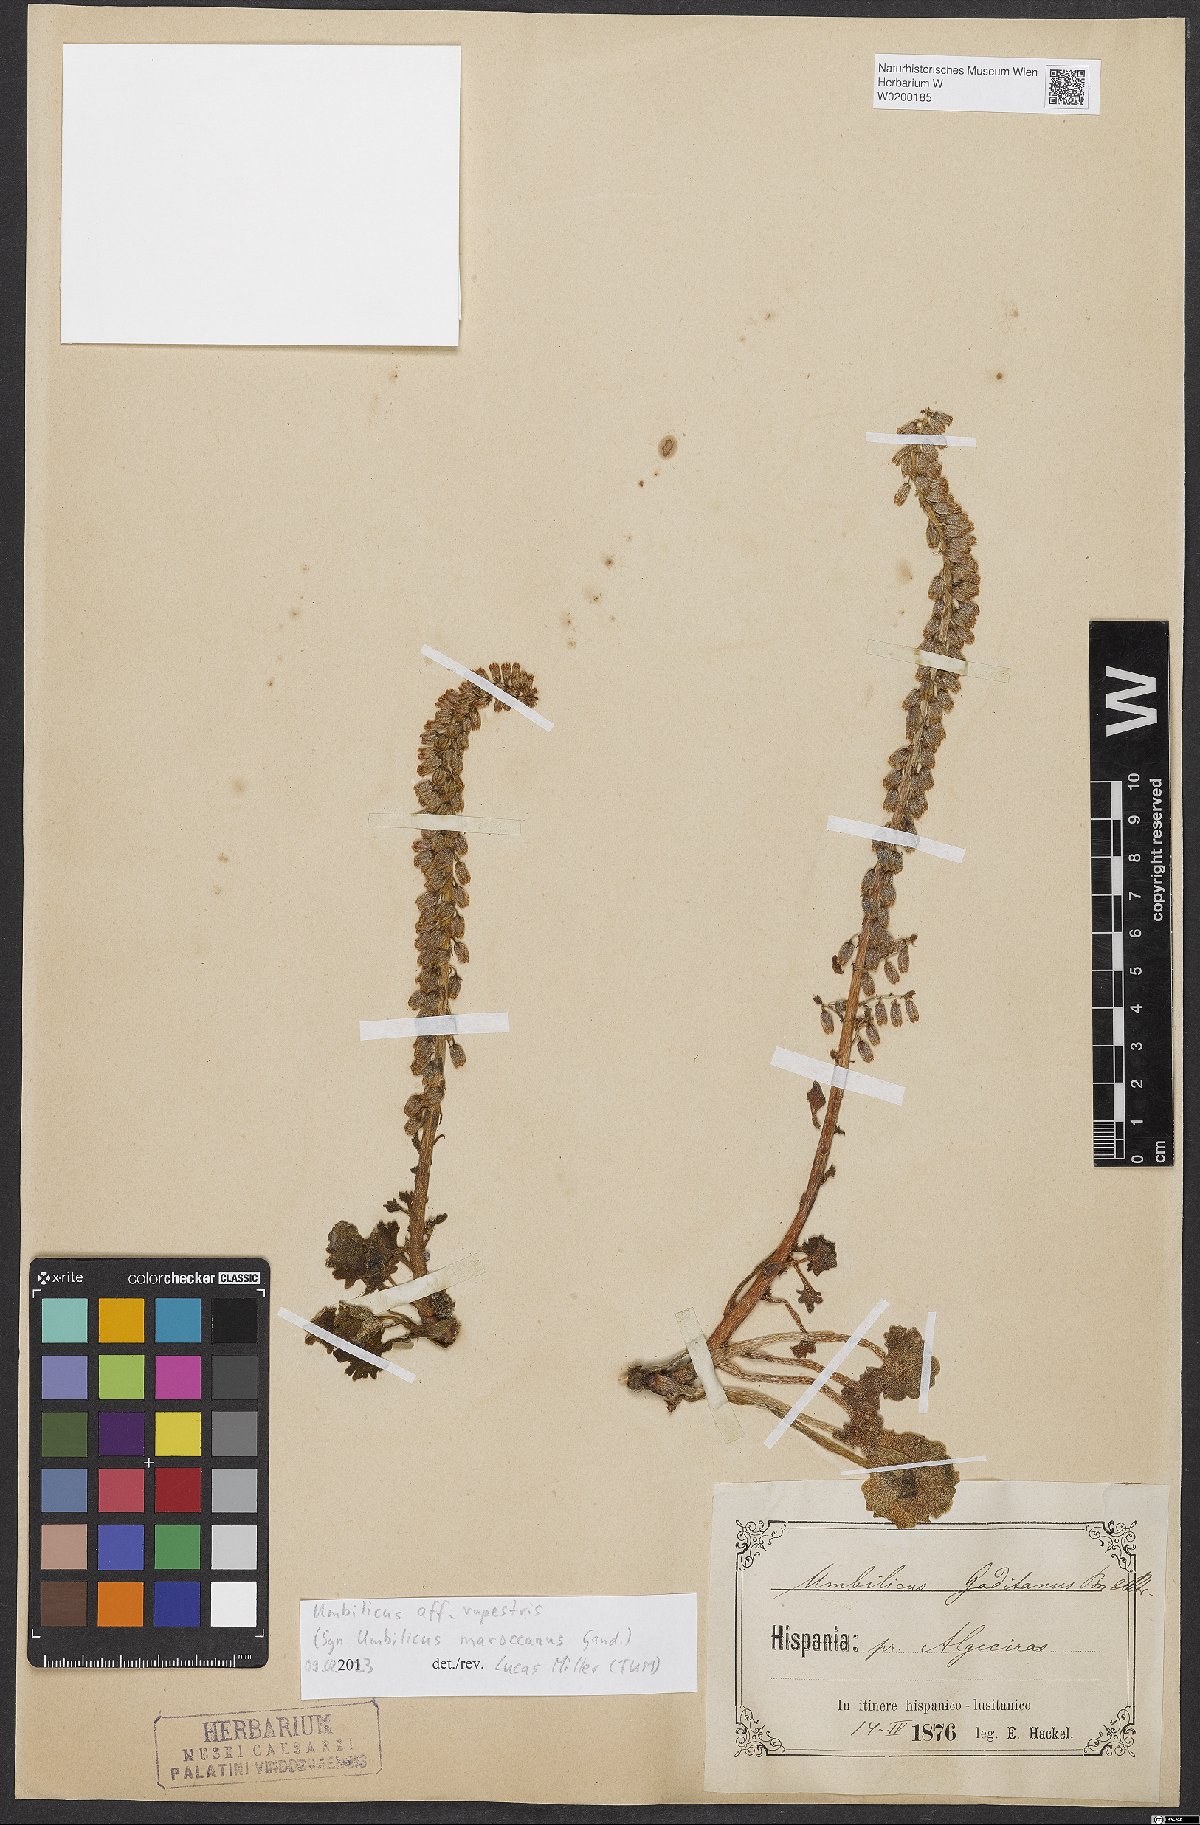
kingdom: Plantae
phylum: Tracheophyta
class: Magnoliopsida
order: Saxifragales
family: Crassulaceae
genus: Umbilicus
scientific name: Umbilicus rupestris
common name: Navelwort
